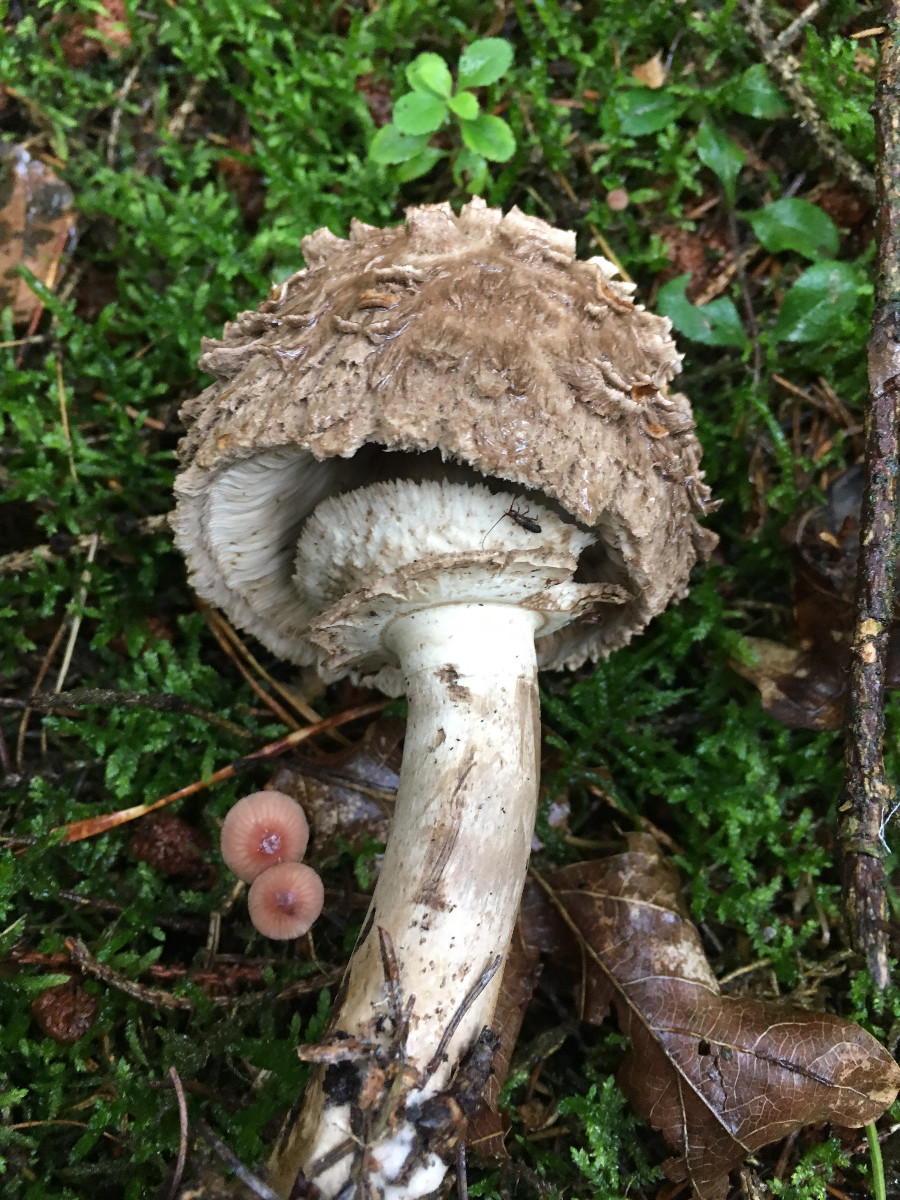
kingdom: Fungi
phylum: Basidiomycota
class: Agaricomycetes
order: Agaricales
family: Agaricaceae
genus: Chlorophyllum
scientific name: Chlorophyllum olivieri
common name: almindelig rabarberhat
